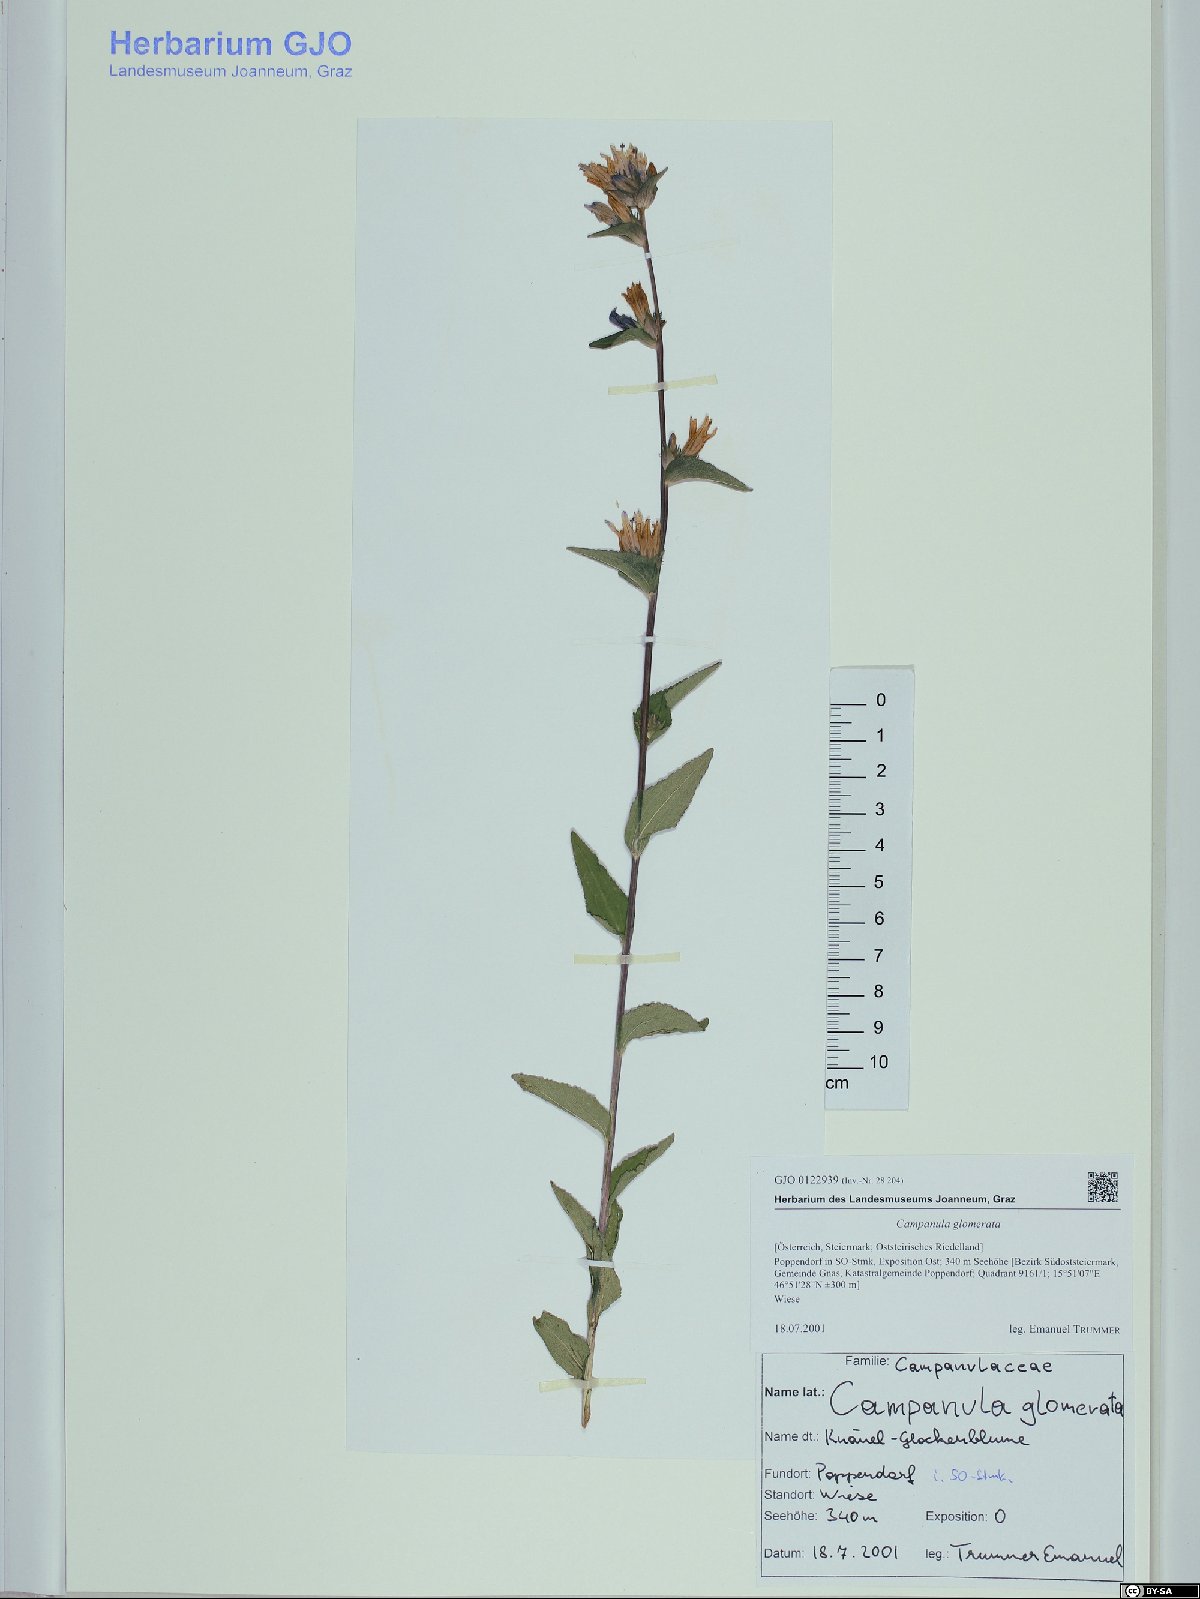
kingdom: Plantae
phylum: Tracheophyta
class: Magnoliopsida
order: Asterales
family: Campanulaceae
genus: Campanula
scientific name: Campanula glomerata
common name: Clustered bellflower
